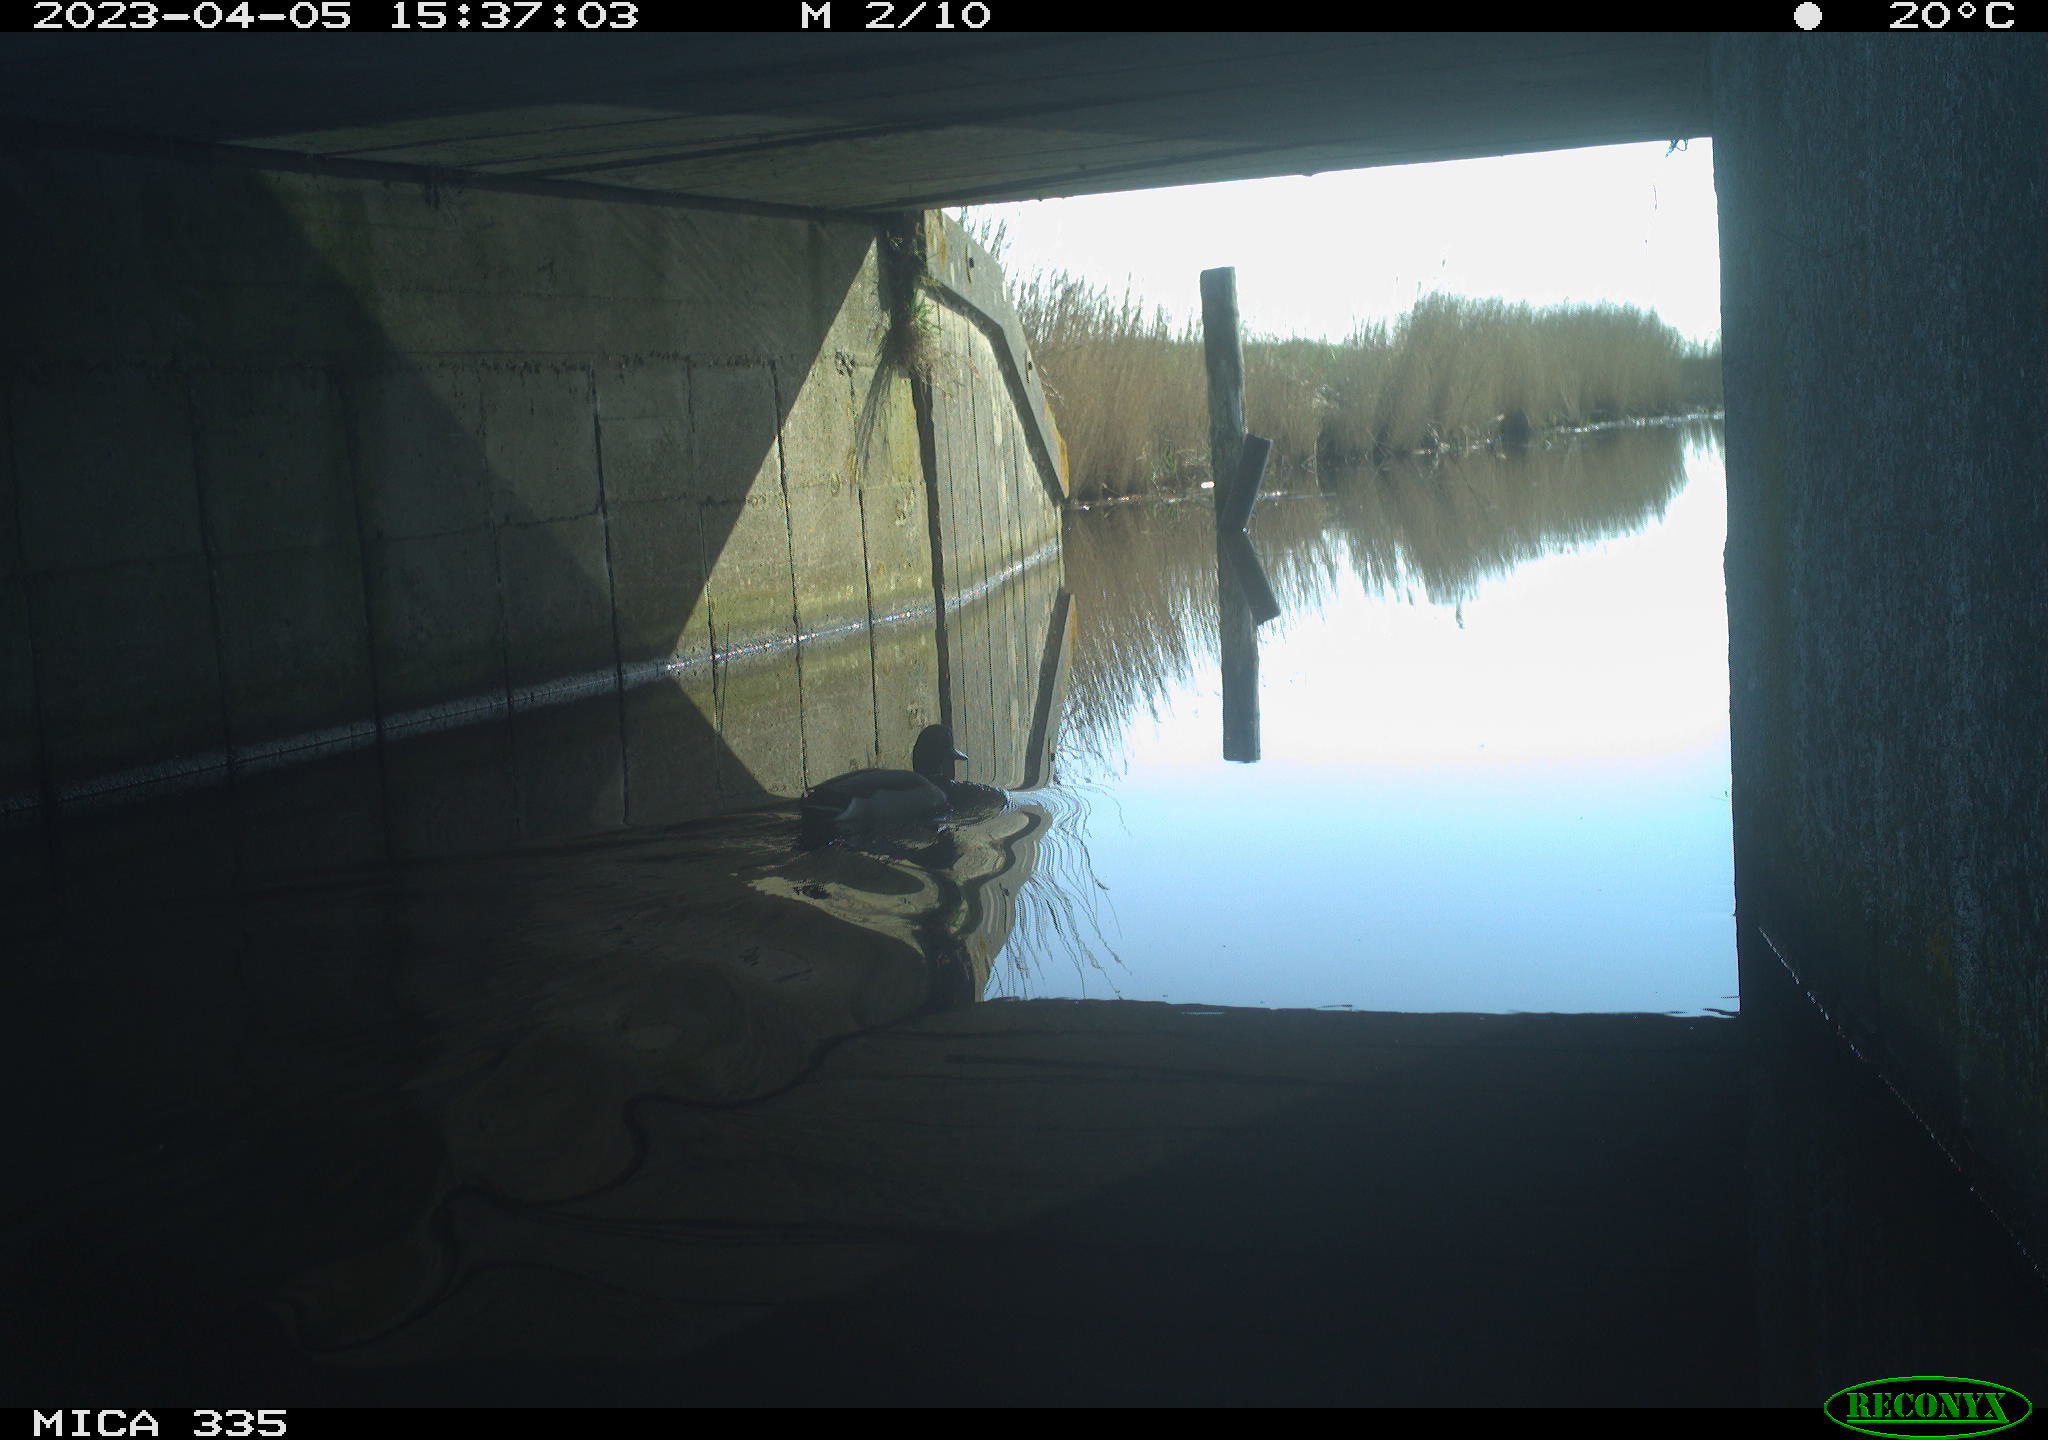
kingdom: Animalia
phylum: Chordata
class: Aves
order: Anseriformes
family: Anatidae
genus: Anas
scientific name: Anas
